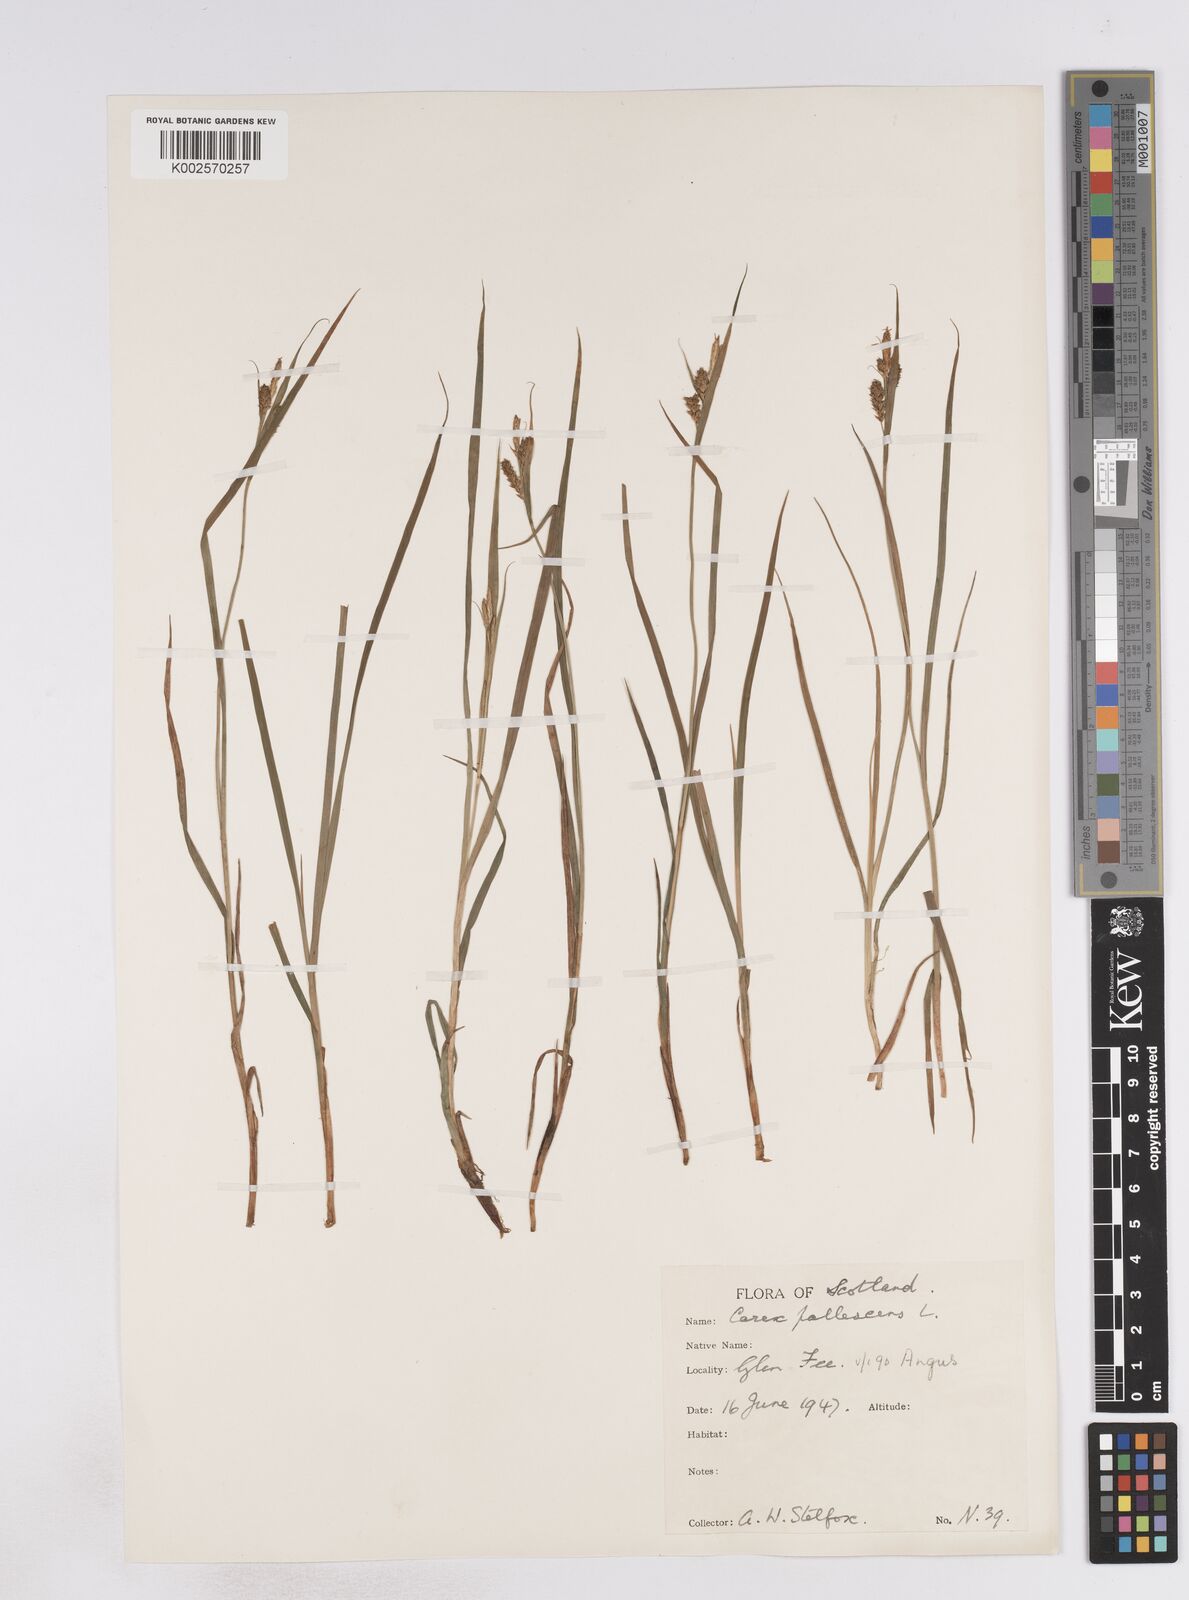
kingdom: Plantae
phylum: Tracheophyta
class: Liliopsida
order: Poales
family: Cyperaceae
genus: Carex
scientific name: Carex pallescens
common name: Pale sedge
